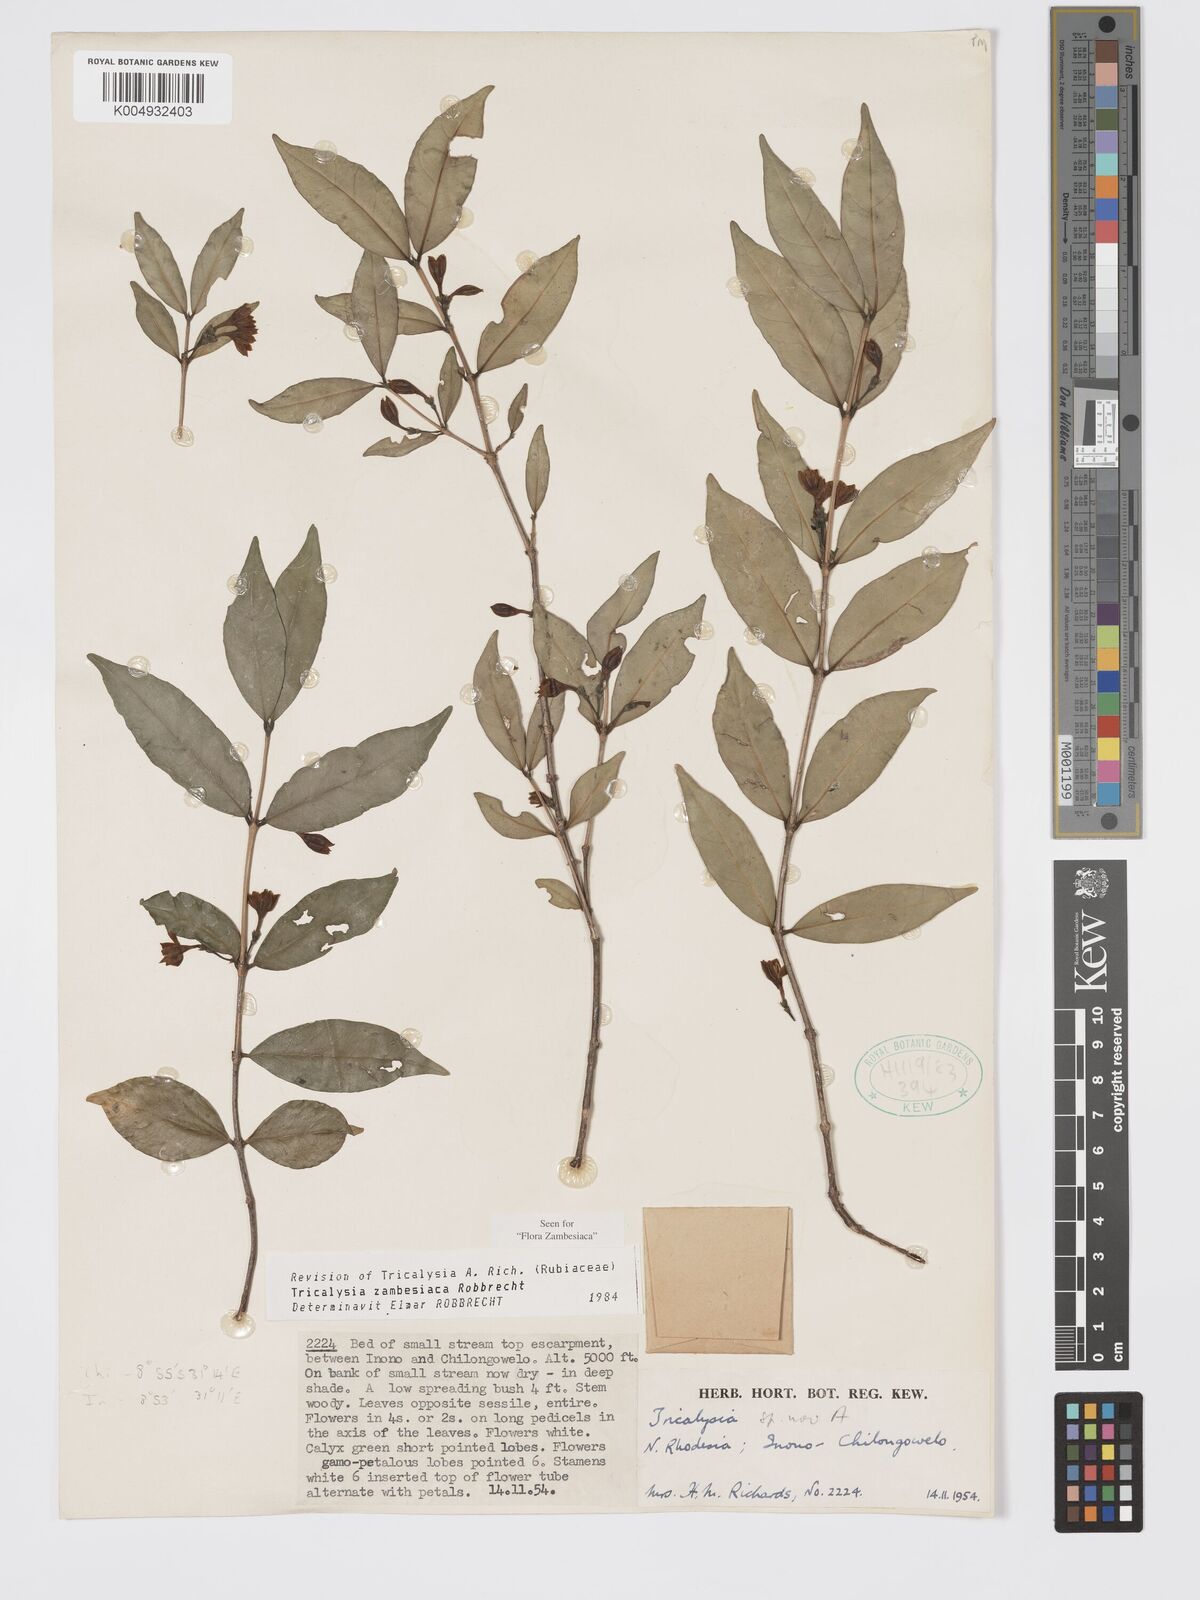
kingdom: Plantae
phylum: Tracheophyta
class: Magnoliopsida
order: Gentianales
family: Rubiaceae
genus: Tricalysia
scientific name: Tricalysia
